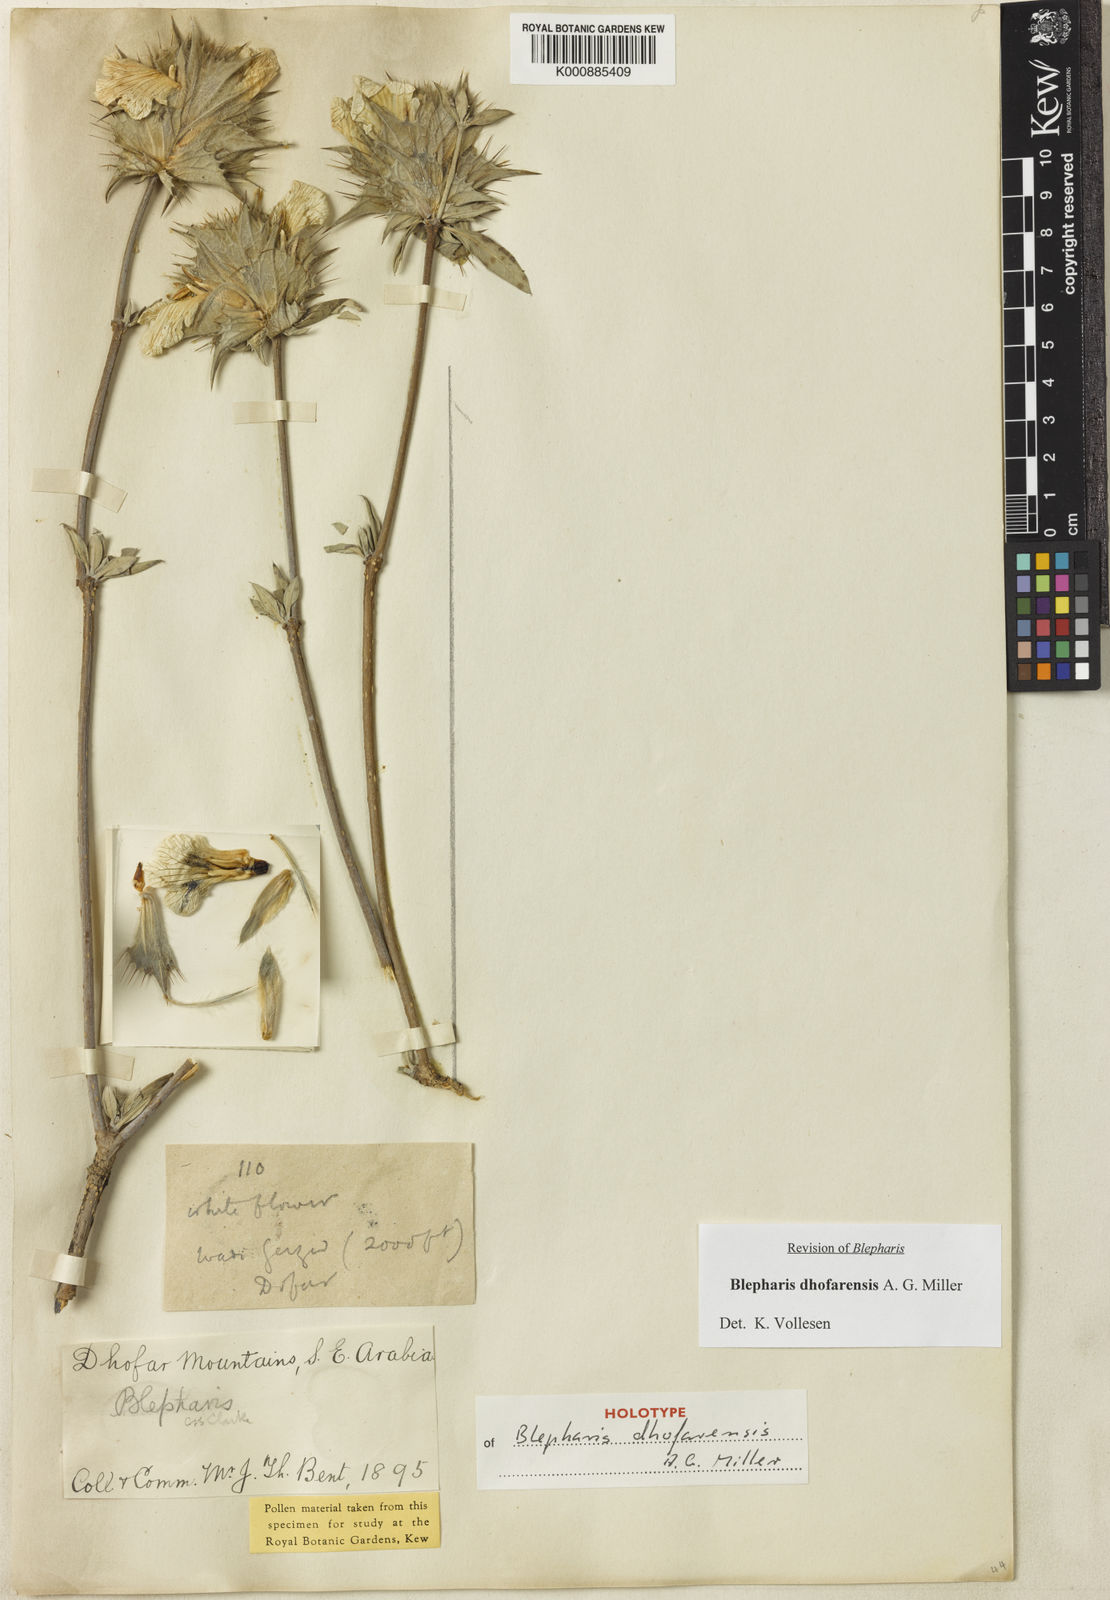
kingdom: Plantae
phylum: Tracheophyta
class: Magnoliopsida
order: Lamiales
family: Acanthaceae
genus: Blepharis
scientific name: Blepharis dhofarensis
